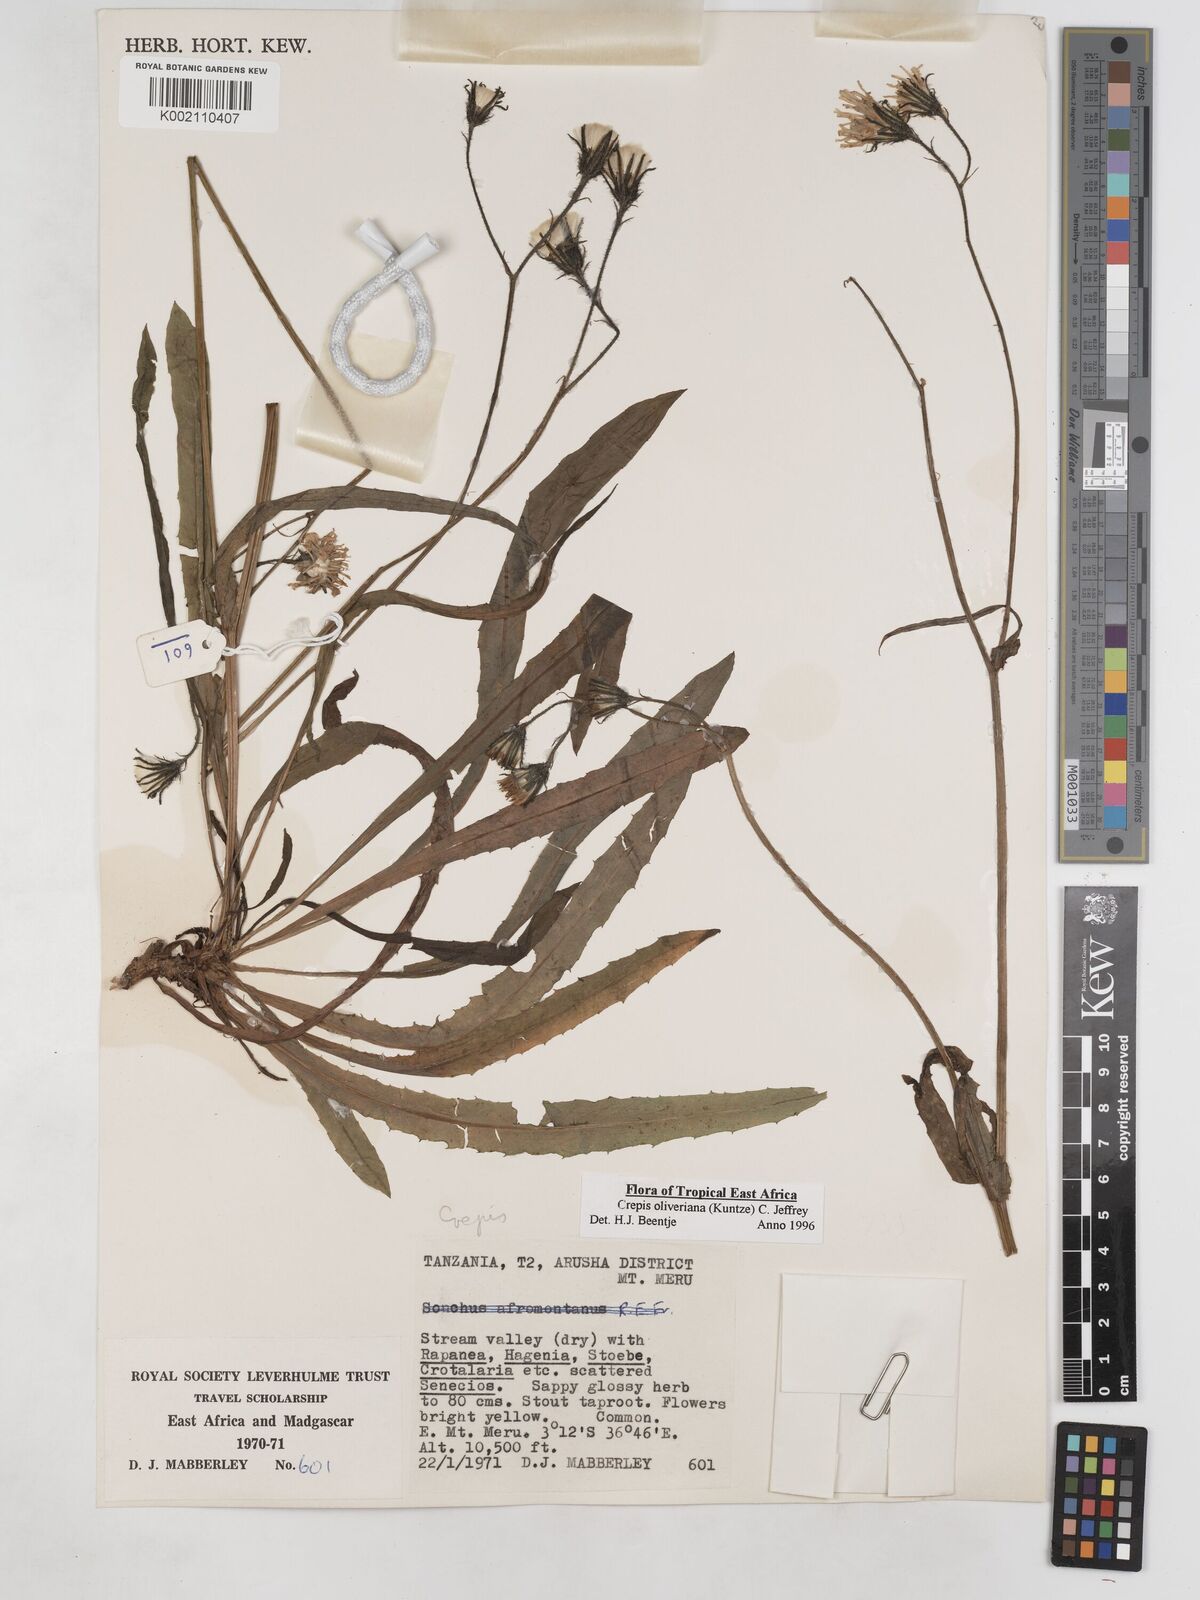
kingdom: Plantae
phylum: Tracheophyta
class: Magnoliopsida
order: Asterales
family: Asteraceae
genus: Crepis
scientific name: Crepis hypochoeridea
